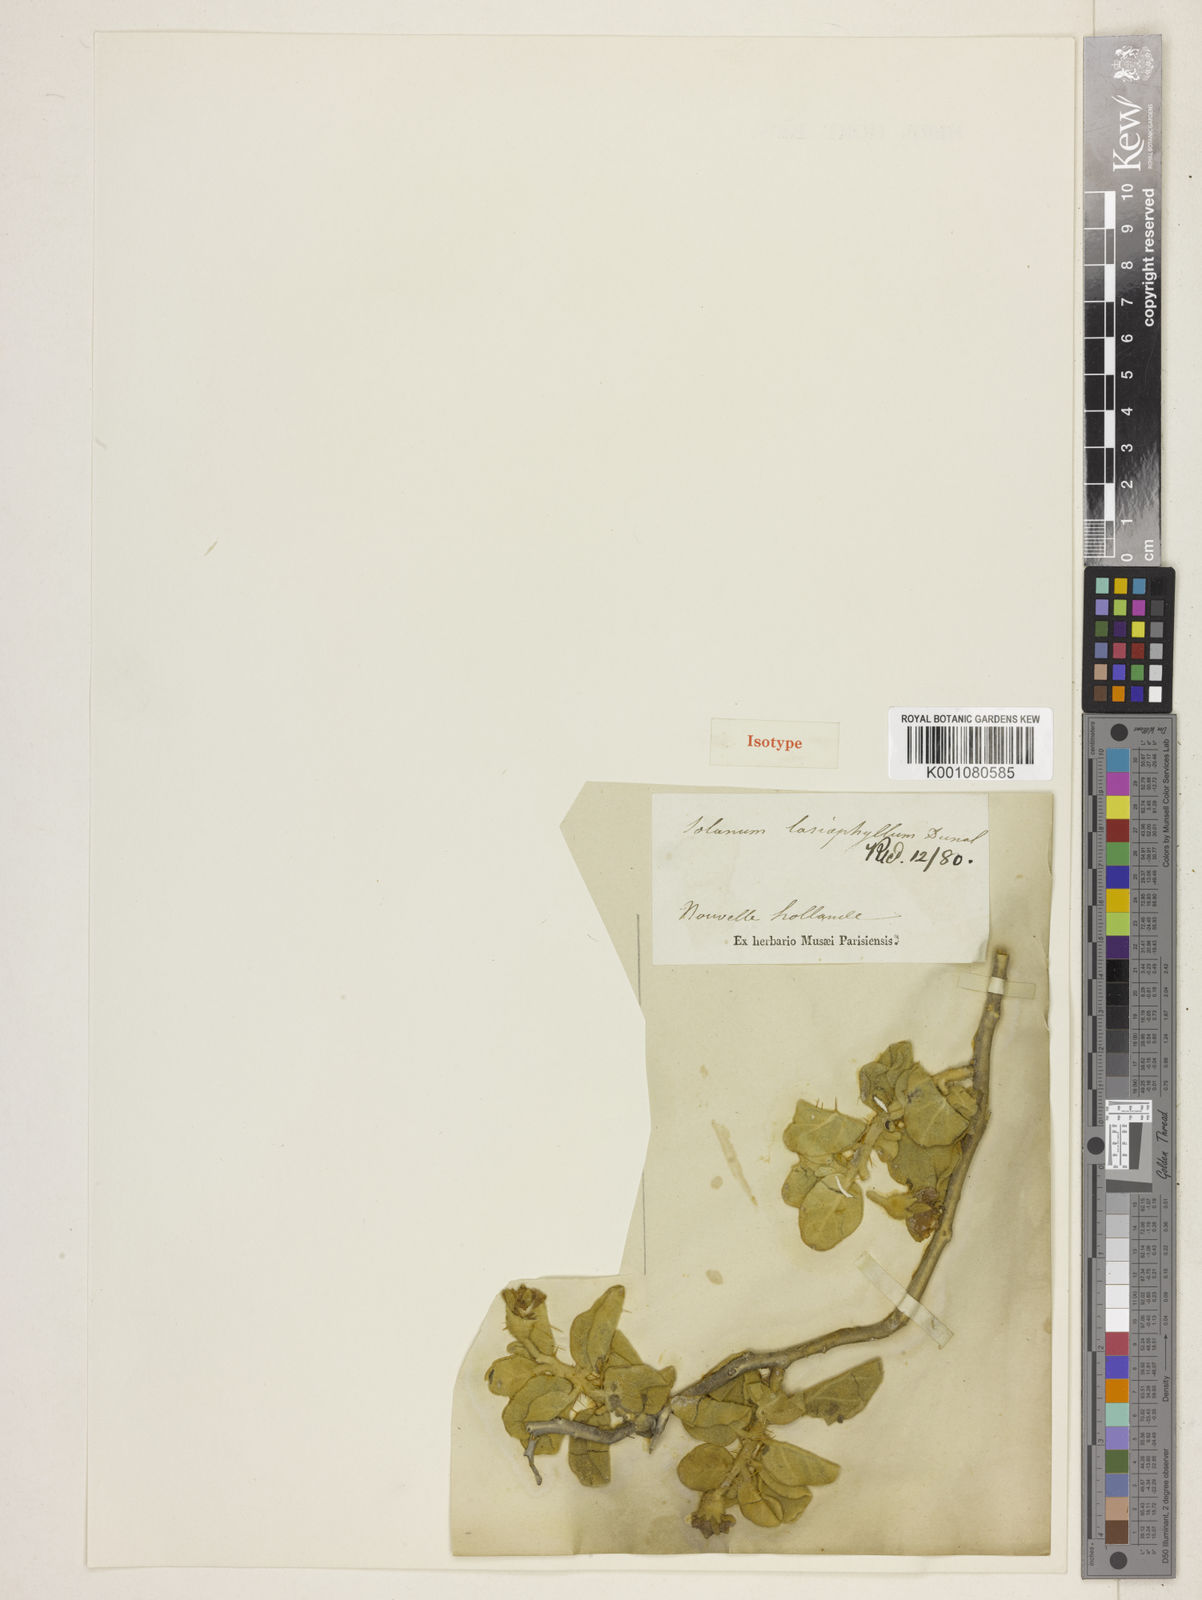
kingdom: Plantae
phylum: Tracheophyta
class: Magnoliopsida
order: Solanales
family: Solanaceae
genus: Solanum
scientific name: Solanum lasiophyllum
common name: Flannelbush
